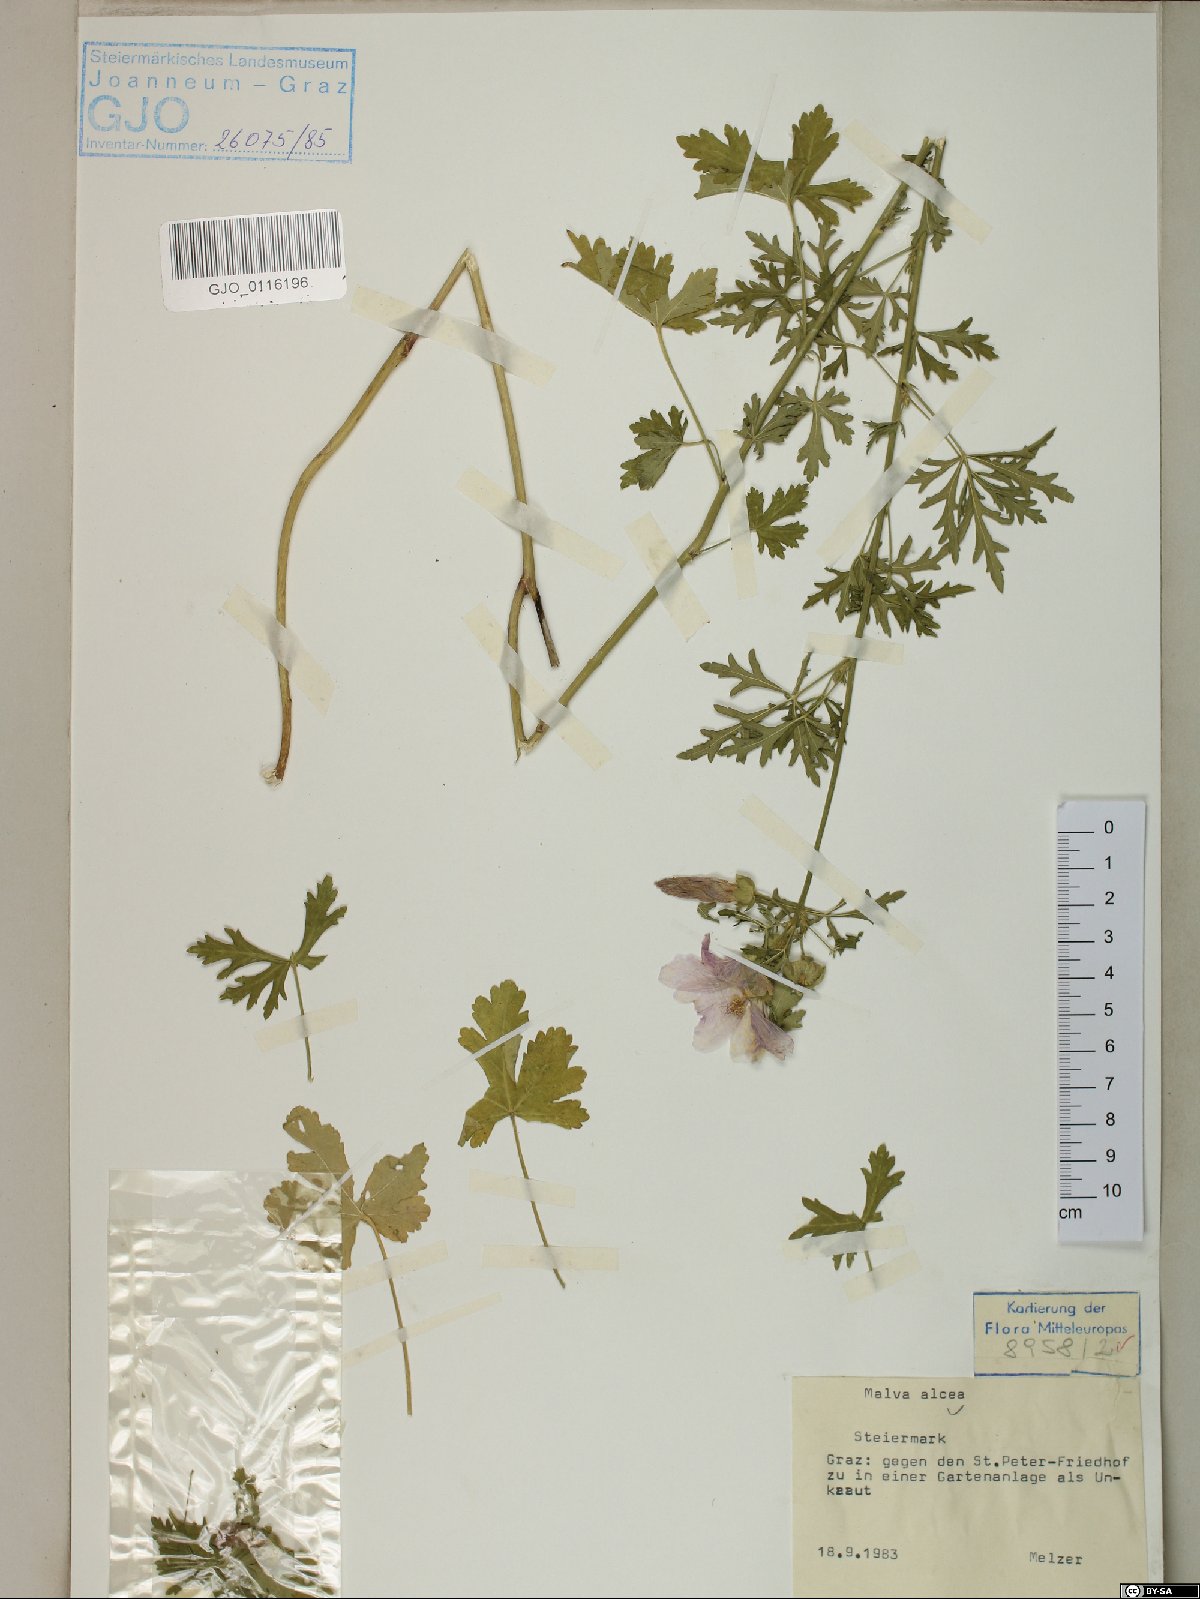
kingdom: Plantae
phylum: Tracheophyta
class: Magnoliopsida
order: Malvales
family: Malvaceae
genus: Malva
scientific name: Malva alcea
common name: Greater musk-mallow
